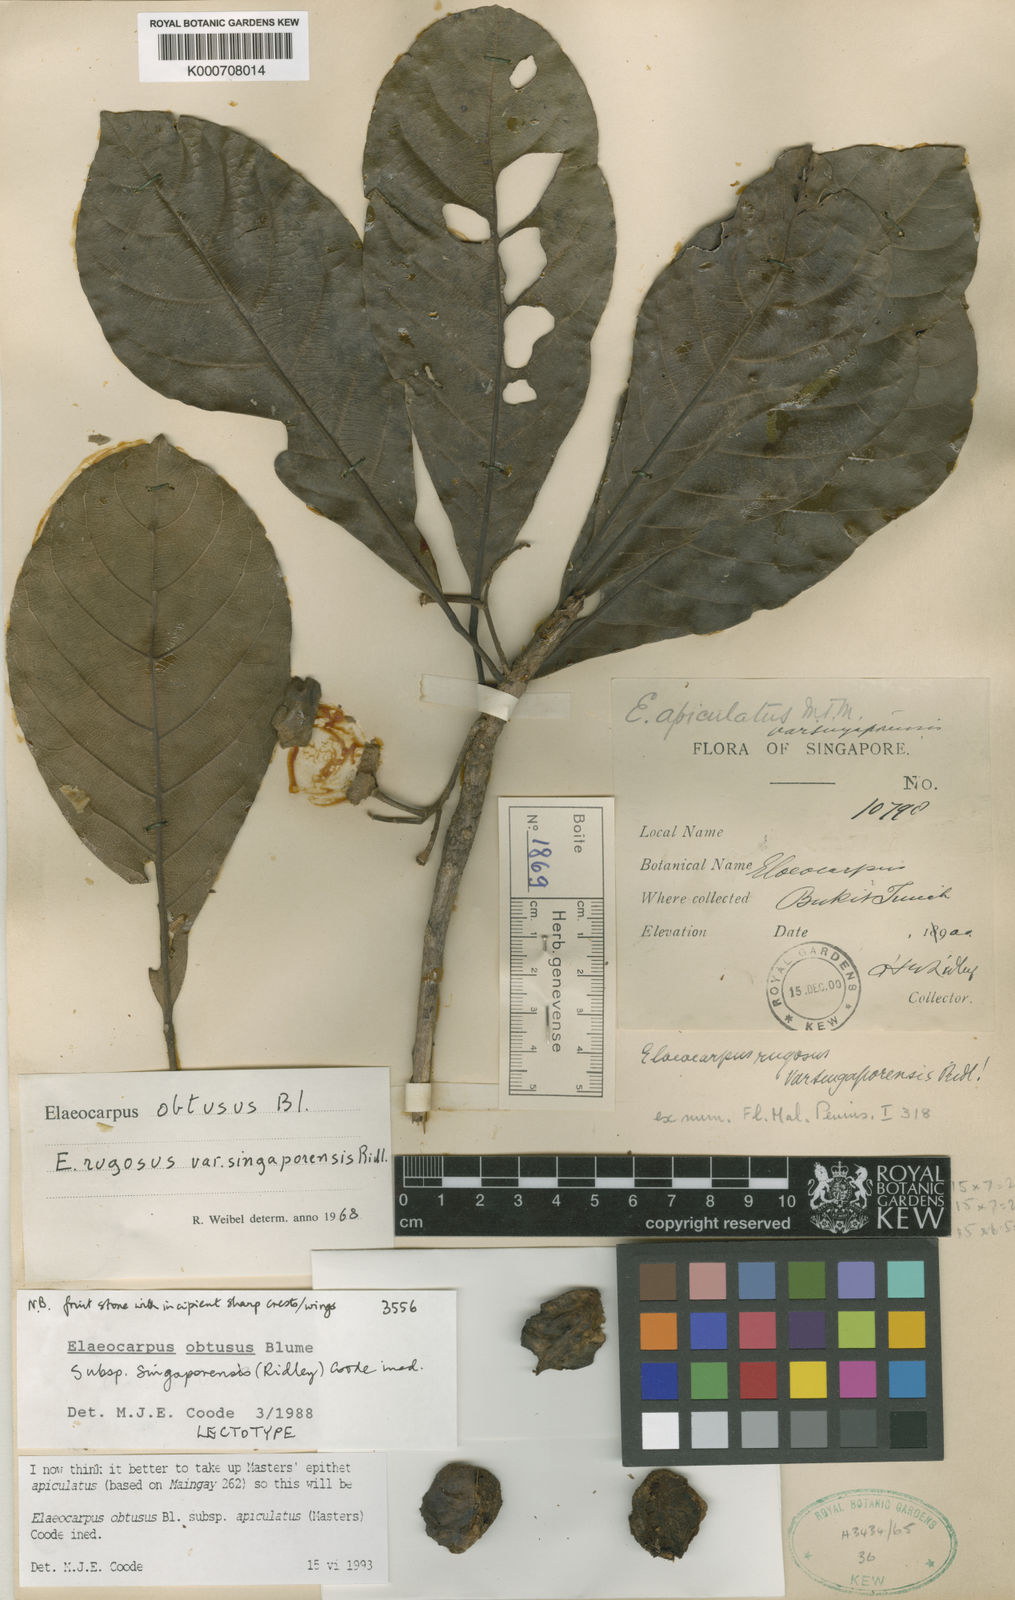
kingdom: Plantae
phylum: Tracheophyta
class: Magnoliopsida
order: Oxalidales
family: Elaeocarpaceae
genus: Elaeocarpus
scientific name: Elaeocarpus obtusus
